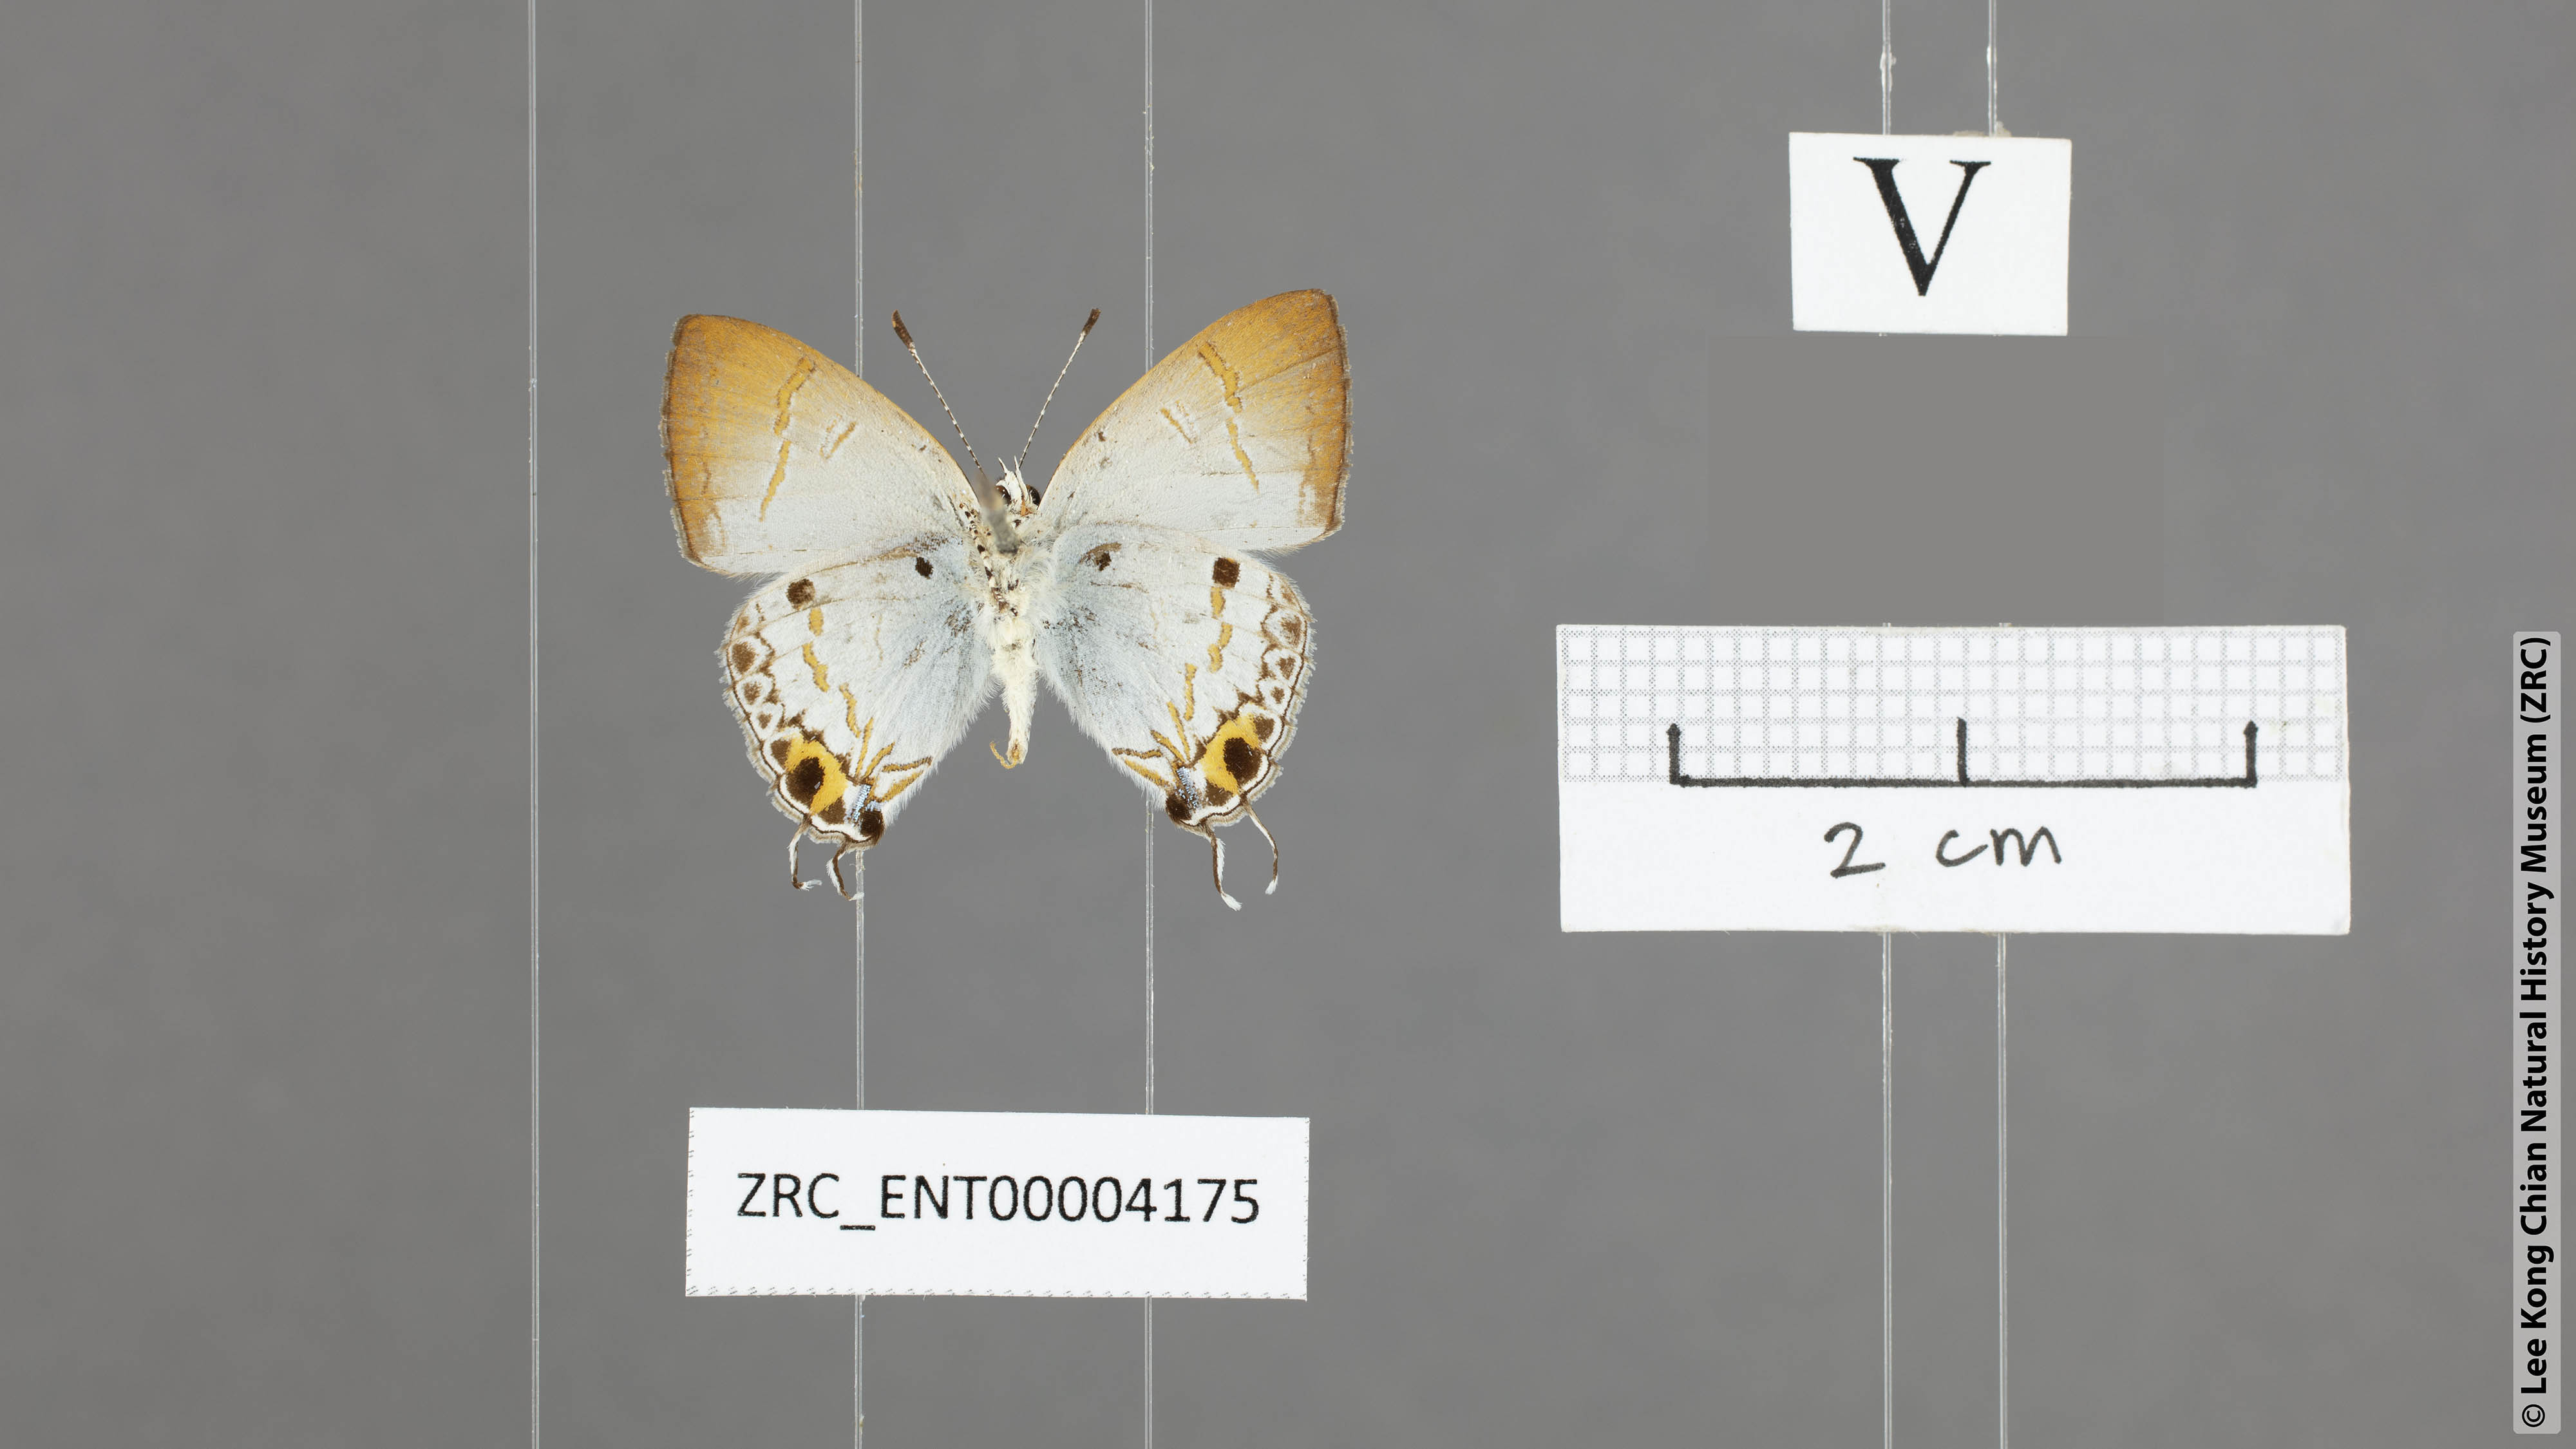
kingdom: Animalia
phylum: Arthropoda
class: Insecta
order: Lepidoptera
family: Lycaenidae
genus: Chliaria
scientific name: Chliaria othona
